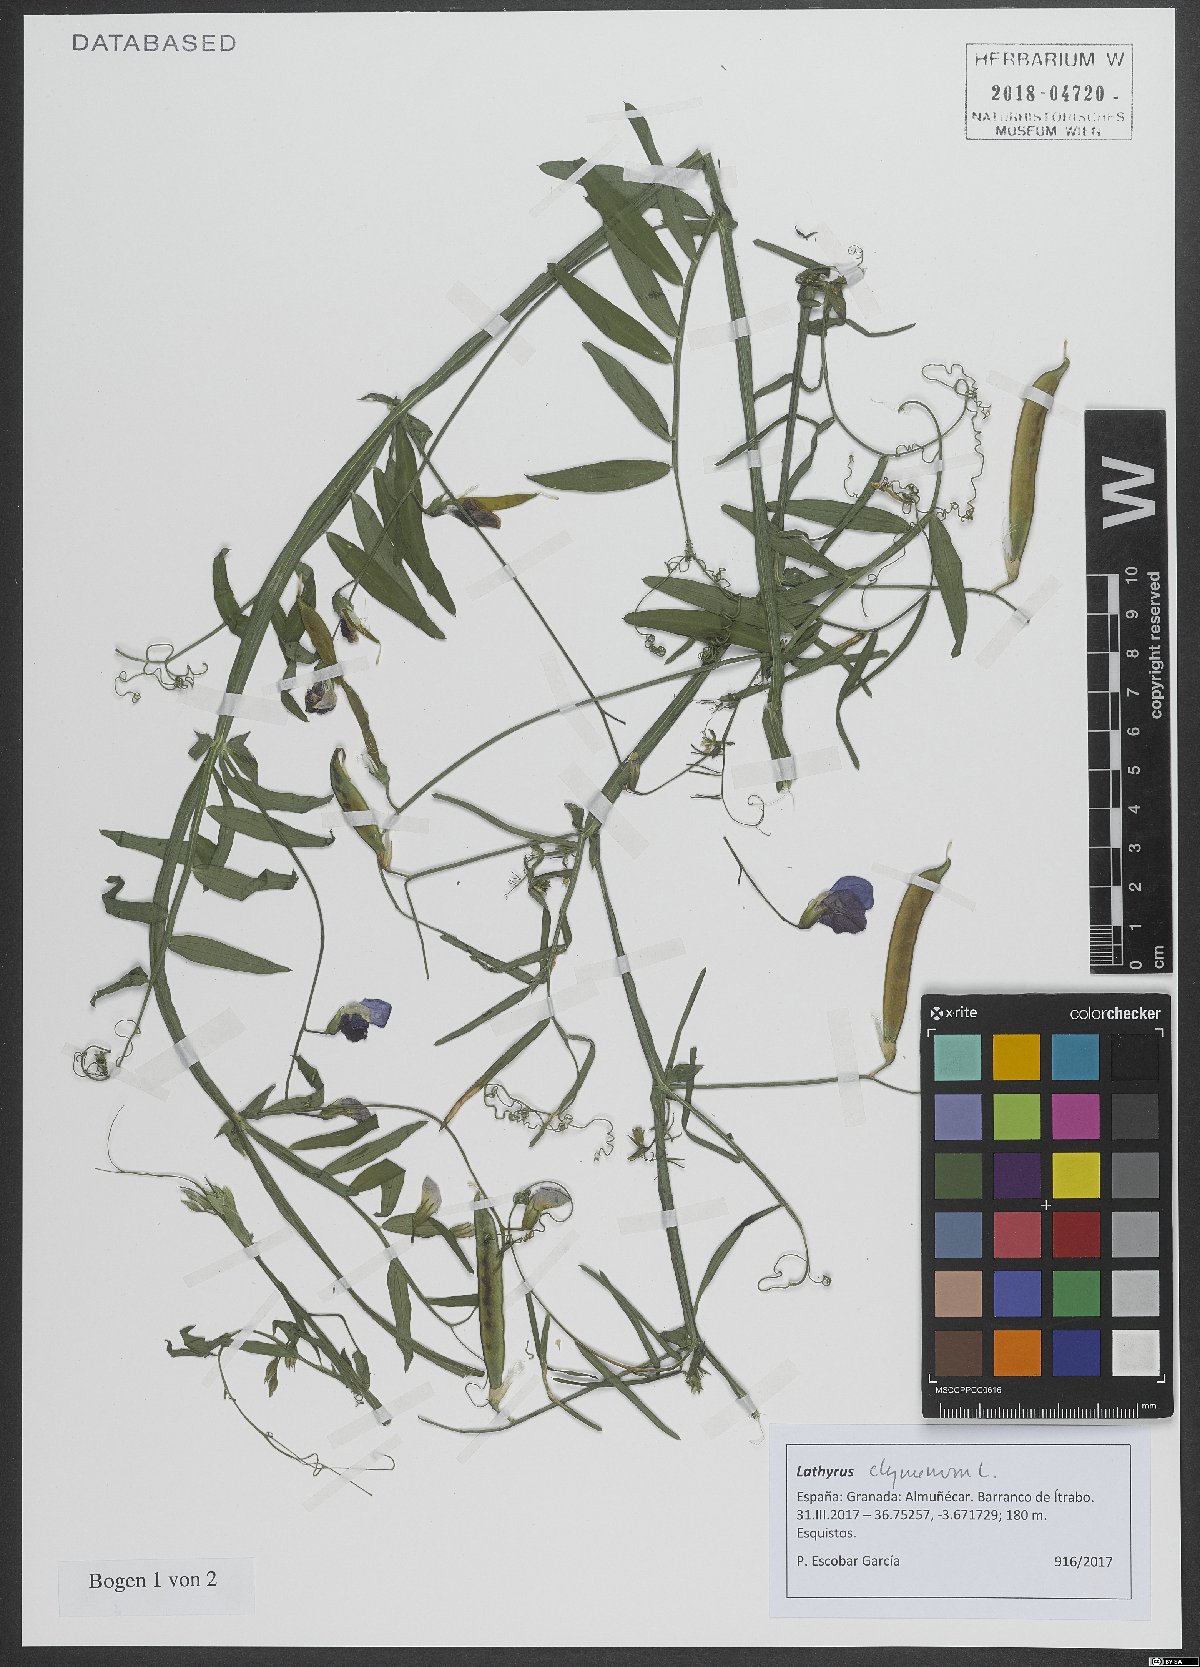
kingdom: Plantae
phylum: Tracheophyta
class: Magnoliopsida
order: Fabales
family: Fabaceae
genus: Lathyrus
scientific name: Lathyrus clymenum
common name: Spanish vetchling
